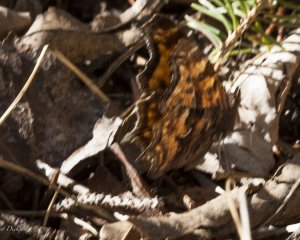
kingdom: Animalia
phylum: Arthropoda
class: Insecta
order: Lepidoptera
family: Nymphalidae
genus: Polygonia
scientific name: Polygonia satyrus
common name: Satyr Comma
